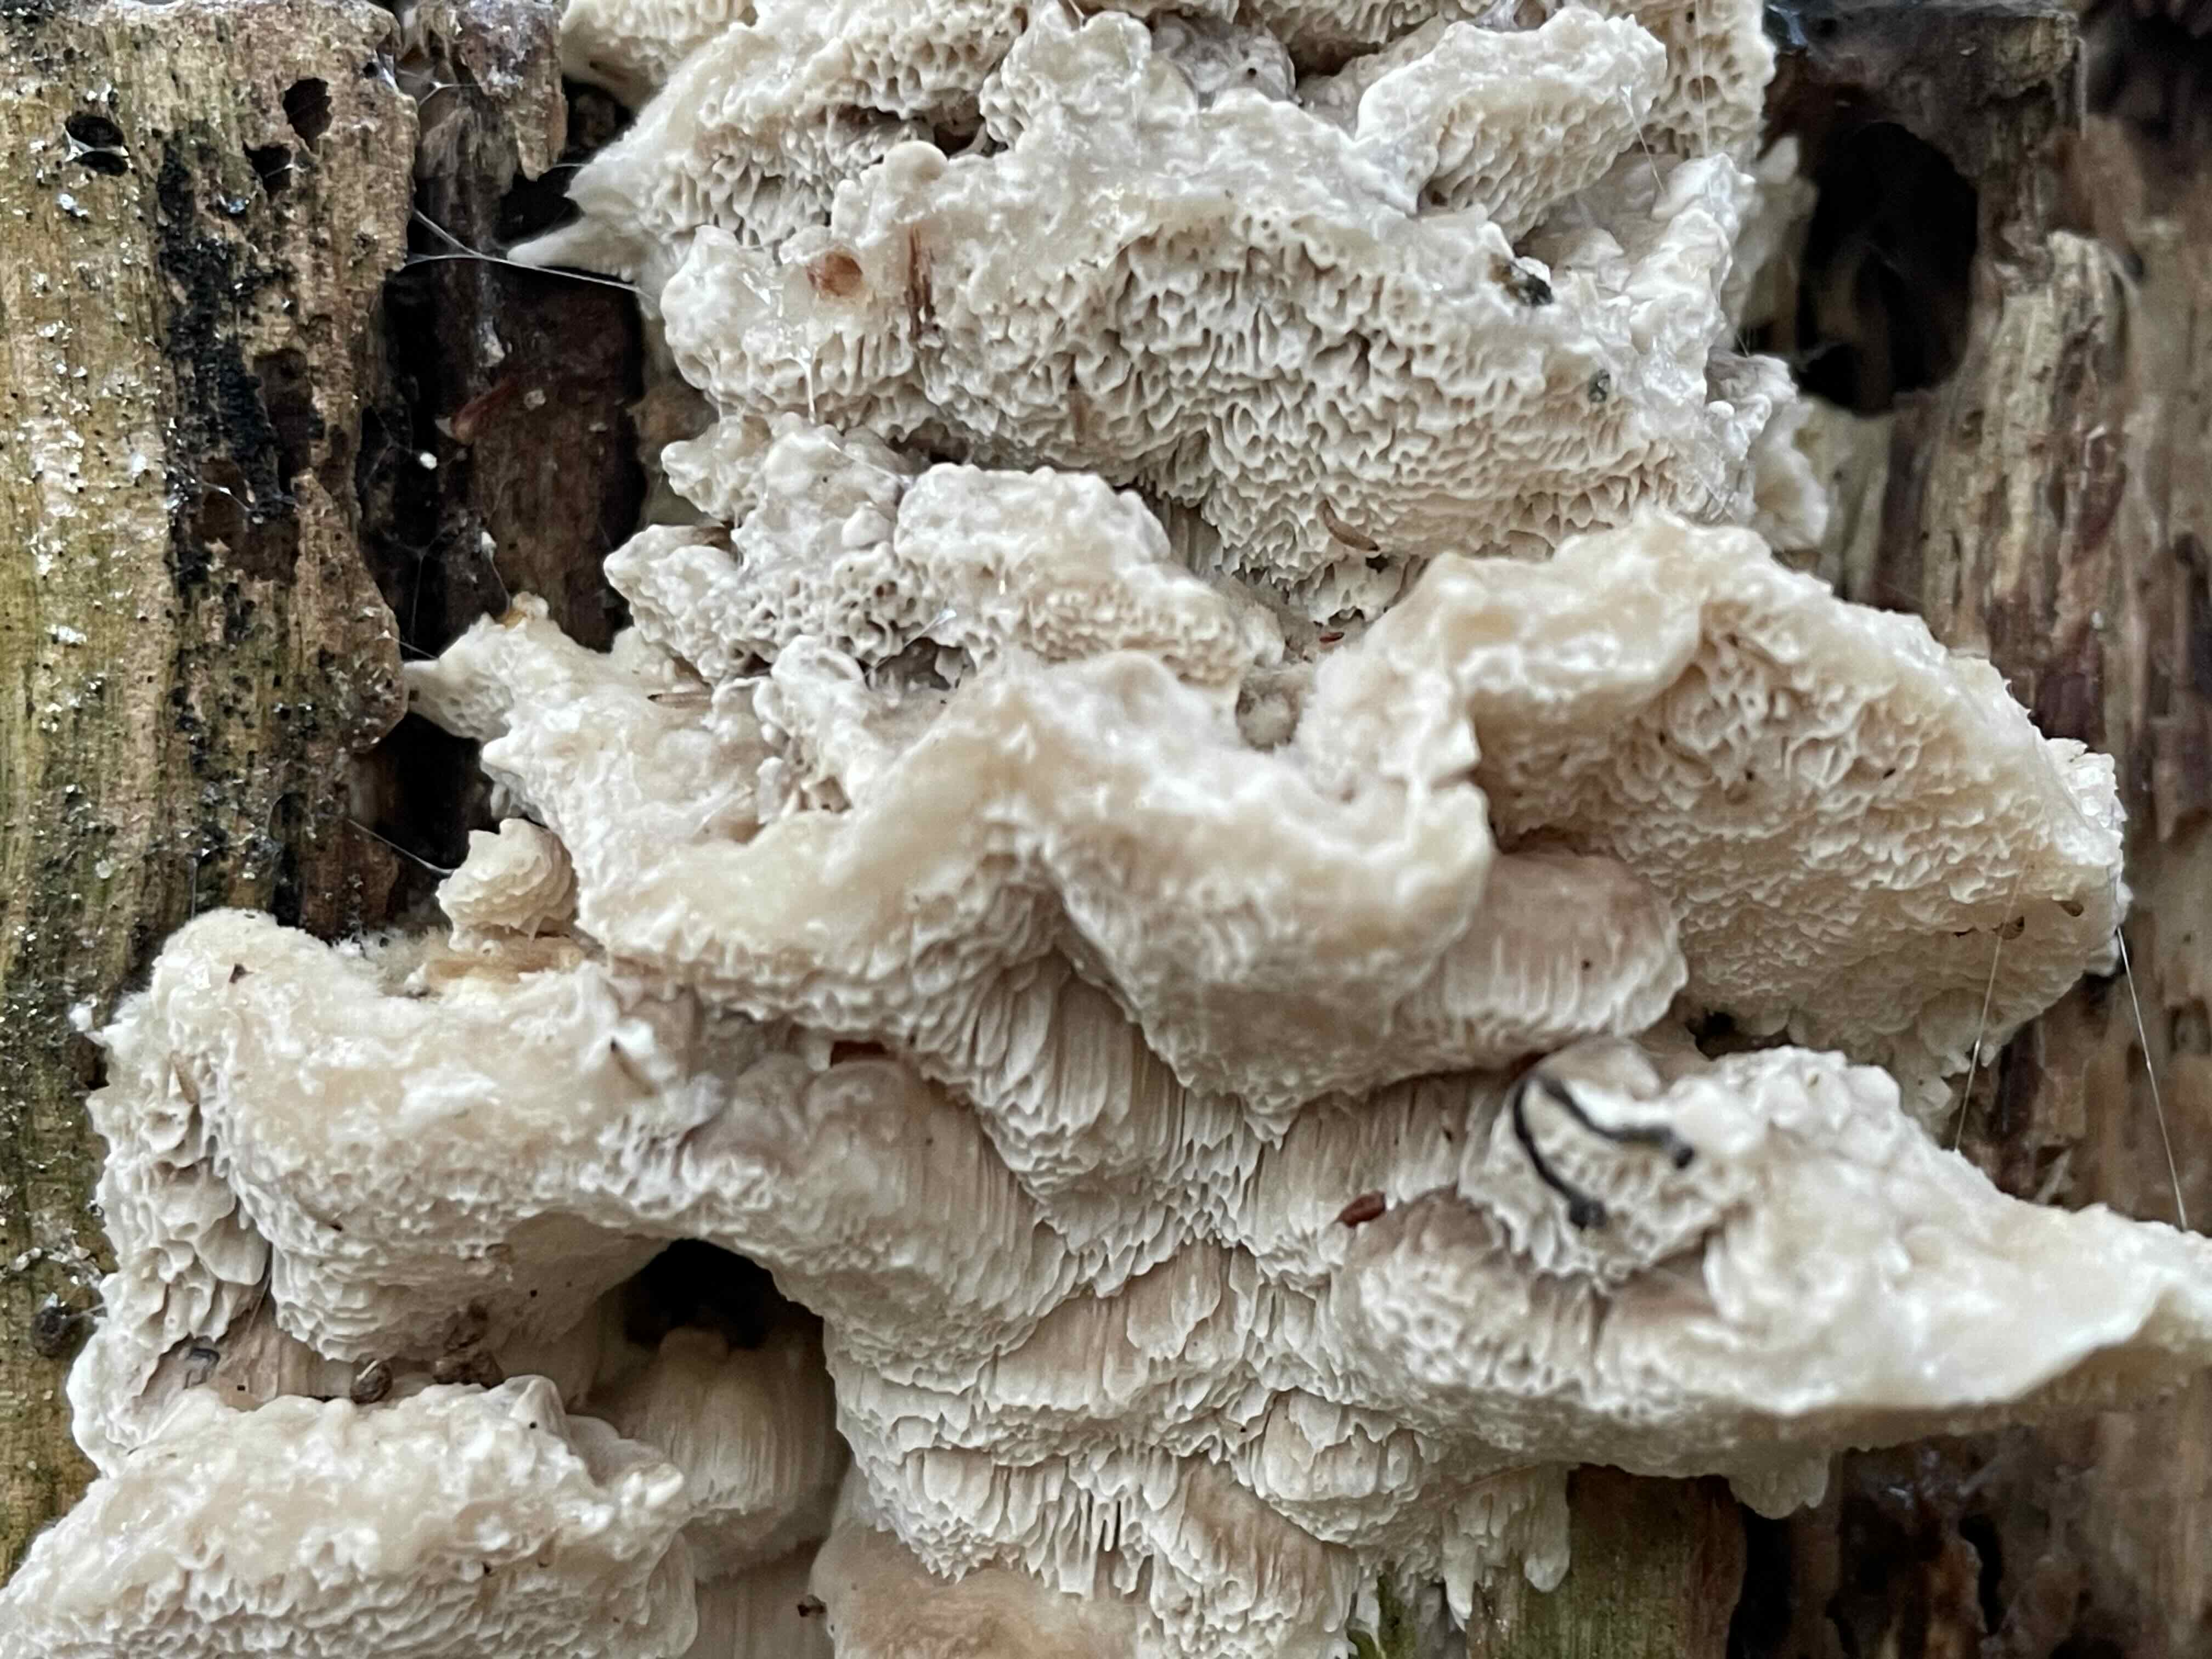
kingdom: Fungi
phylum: Basidiomycota
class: Agaricomycetes
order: Polyporales
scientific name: Polyporales
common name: poresvampordenen
